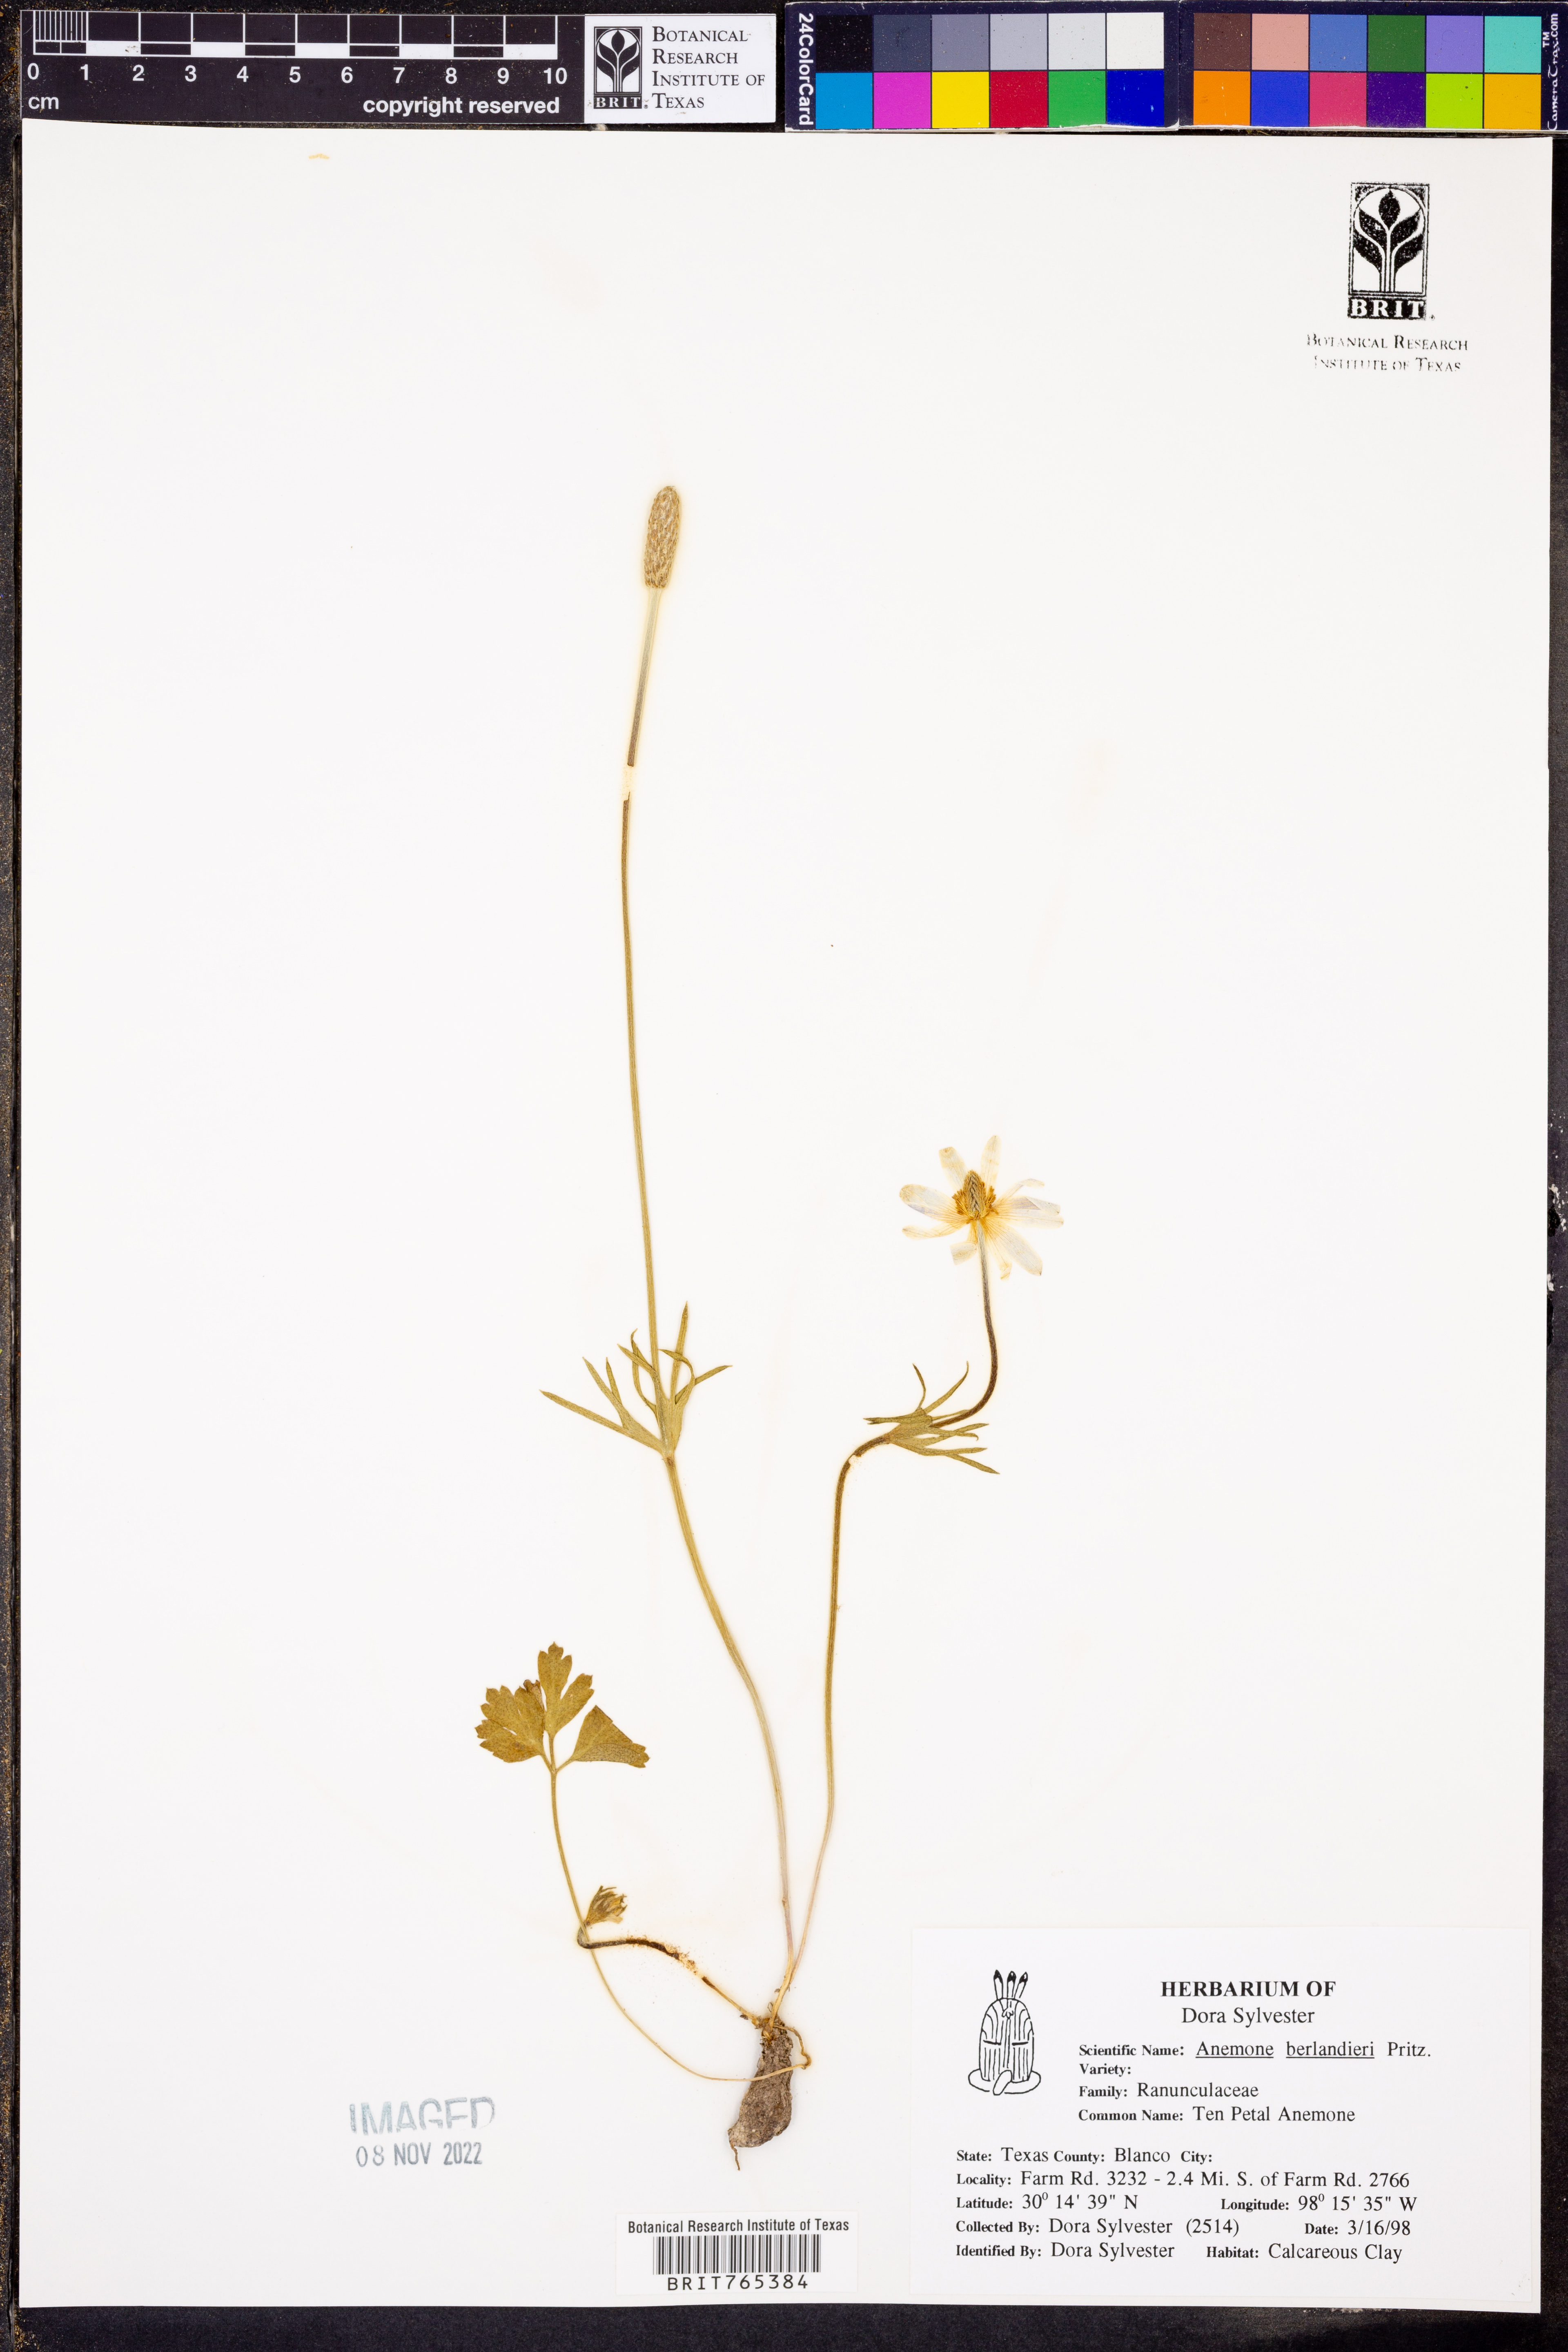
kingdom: Plantae
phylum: Tracheophyta
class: Magnoliopsida
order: Ranunculales
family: Ranunculaceae
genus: Anemone
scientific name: Anemone berlandieri
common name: Ten-petal anemone
